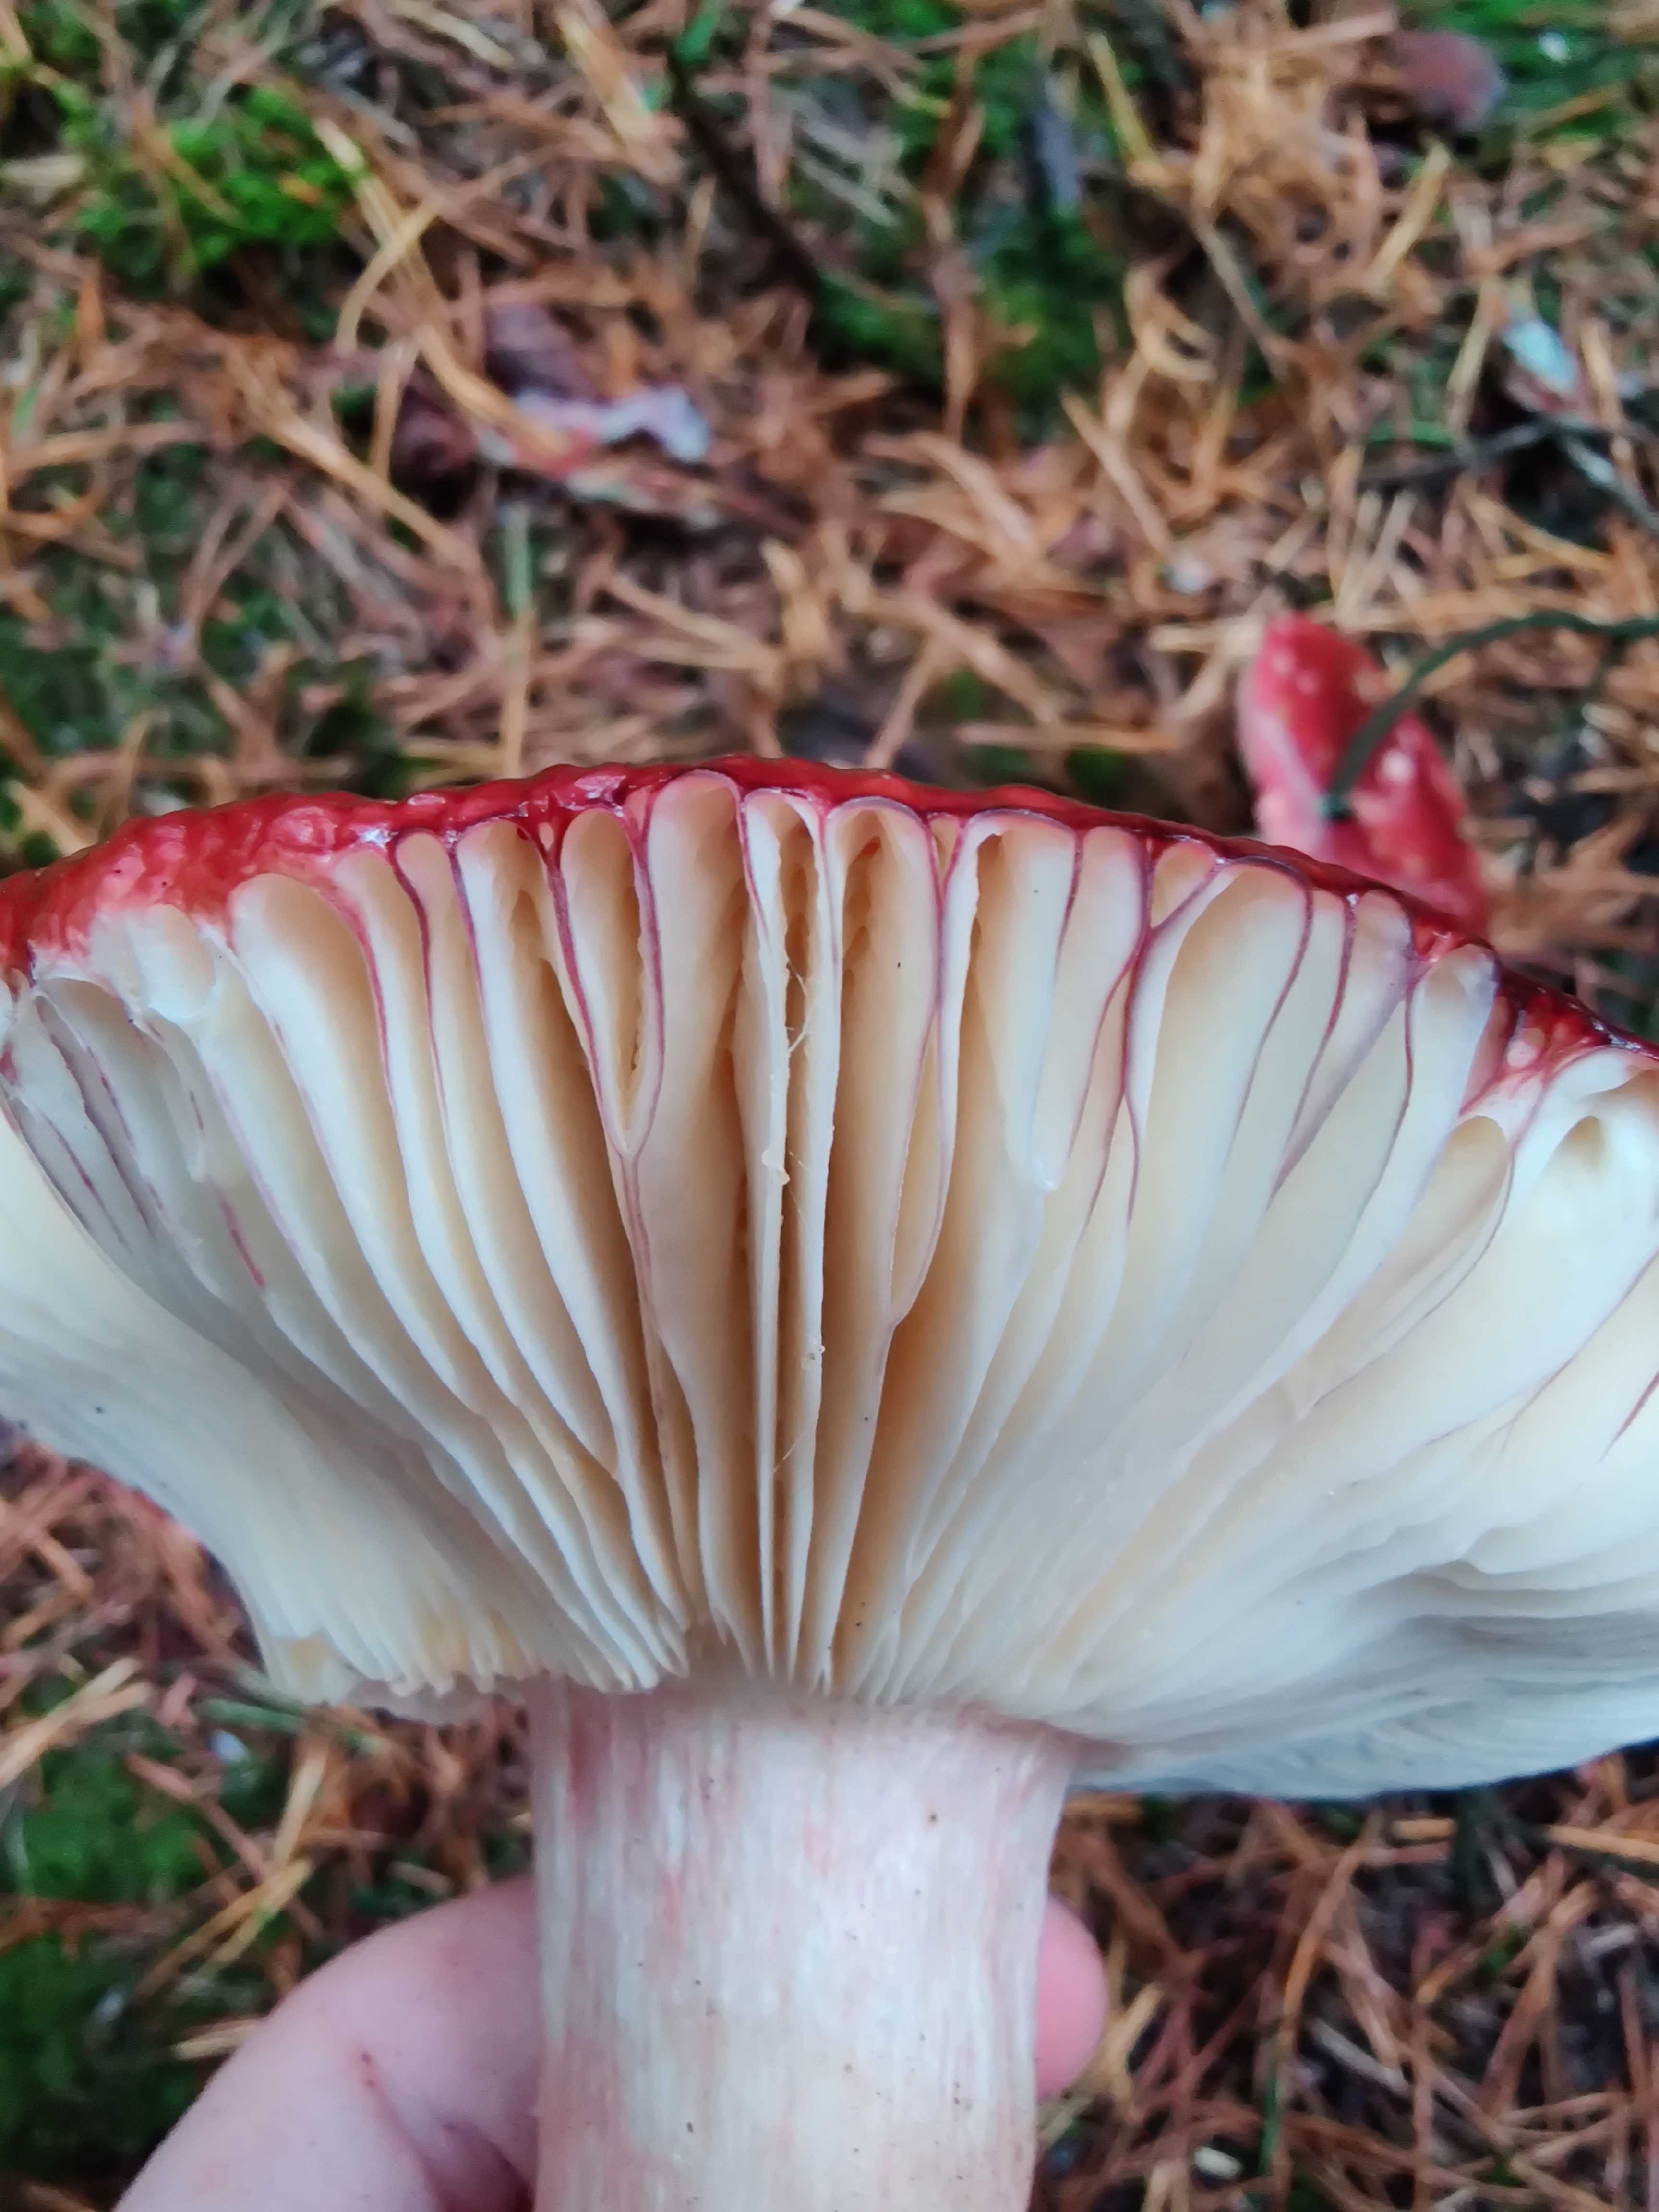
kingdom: Fungi
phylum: Basidiomycota
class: Agaricomycetes
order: Russulales
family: Russulaceae
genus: Russula
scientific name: Russula xerampelina
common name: hummer-skørhat
